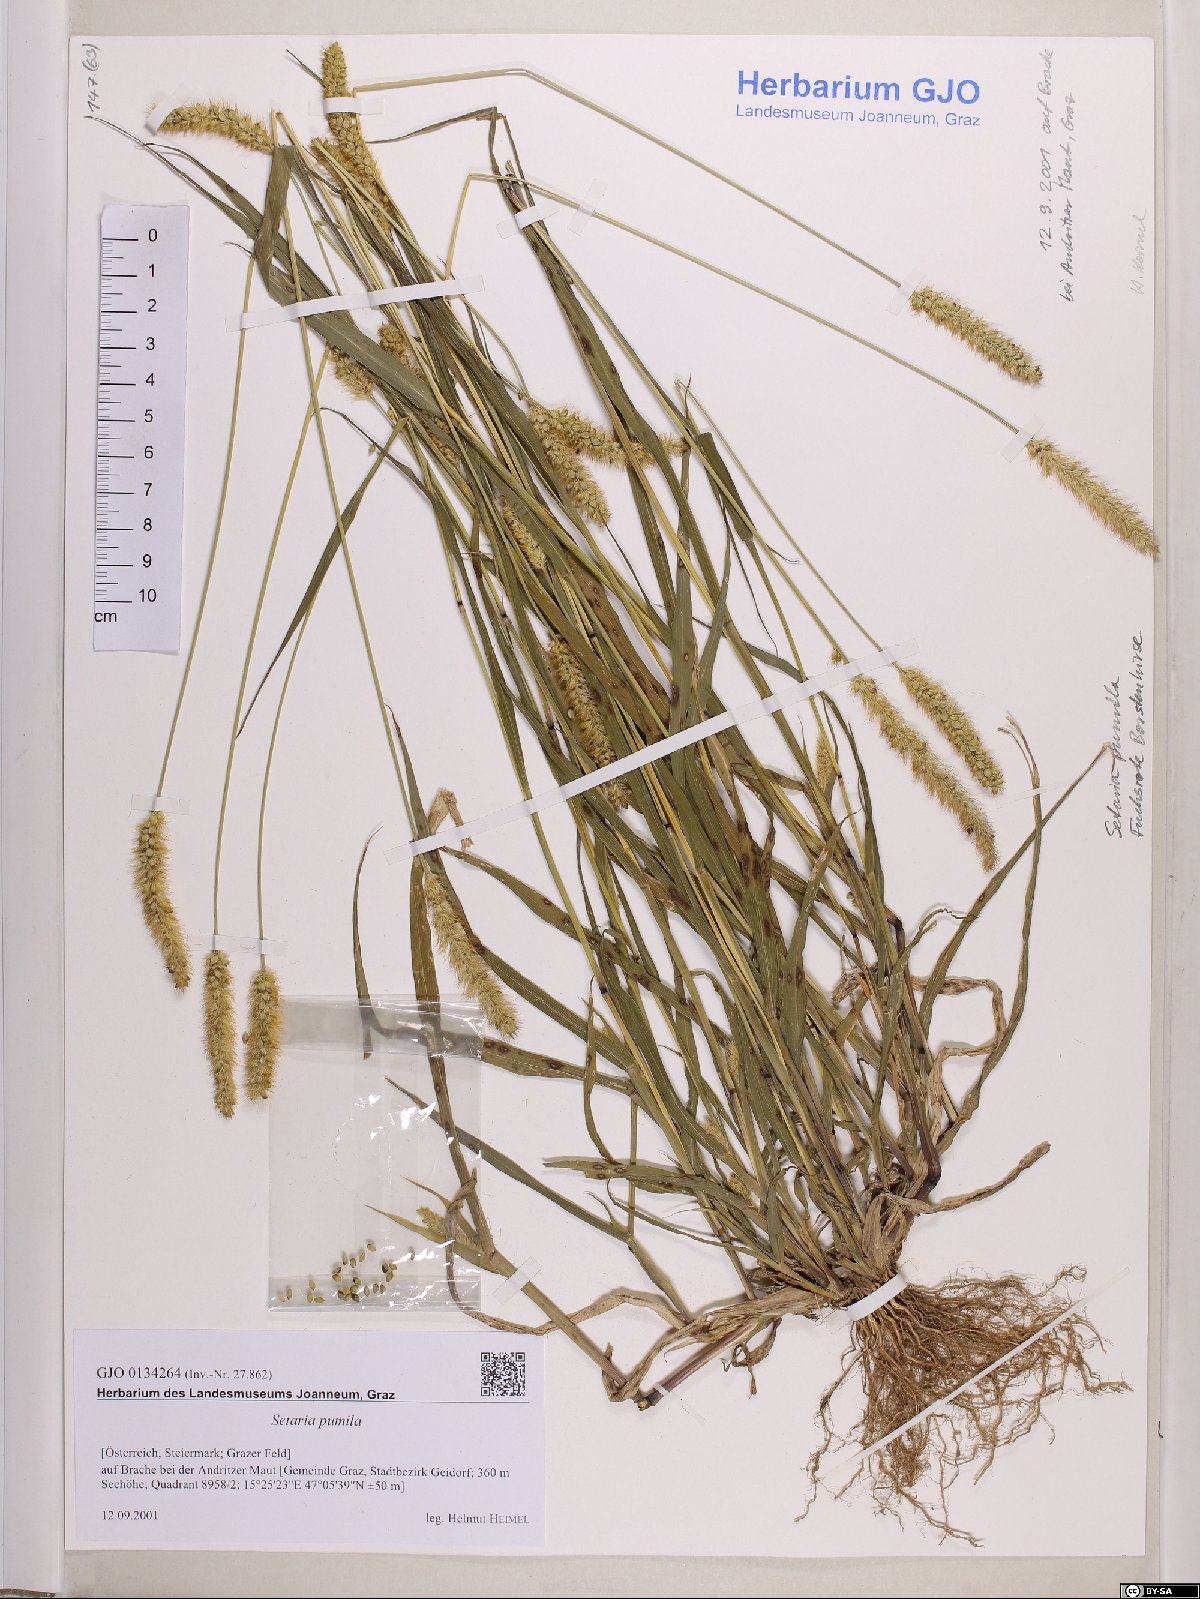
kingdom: Plantae
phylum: Tracheophyta
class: Liliopsida
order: Poales
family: Poaceae
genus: Setaria
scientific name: Setaria pumila
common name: Yellow bristle-grass
